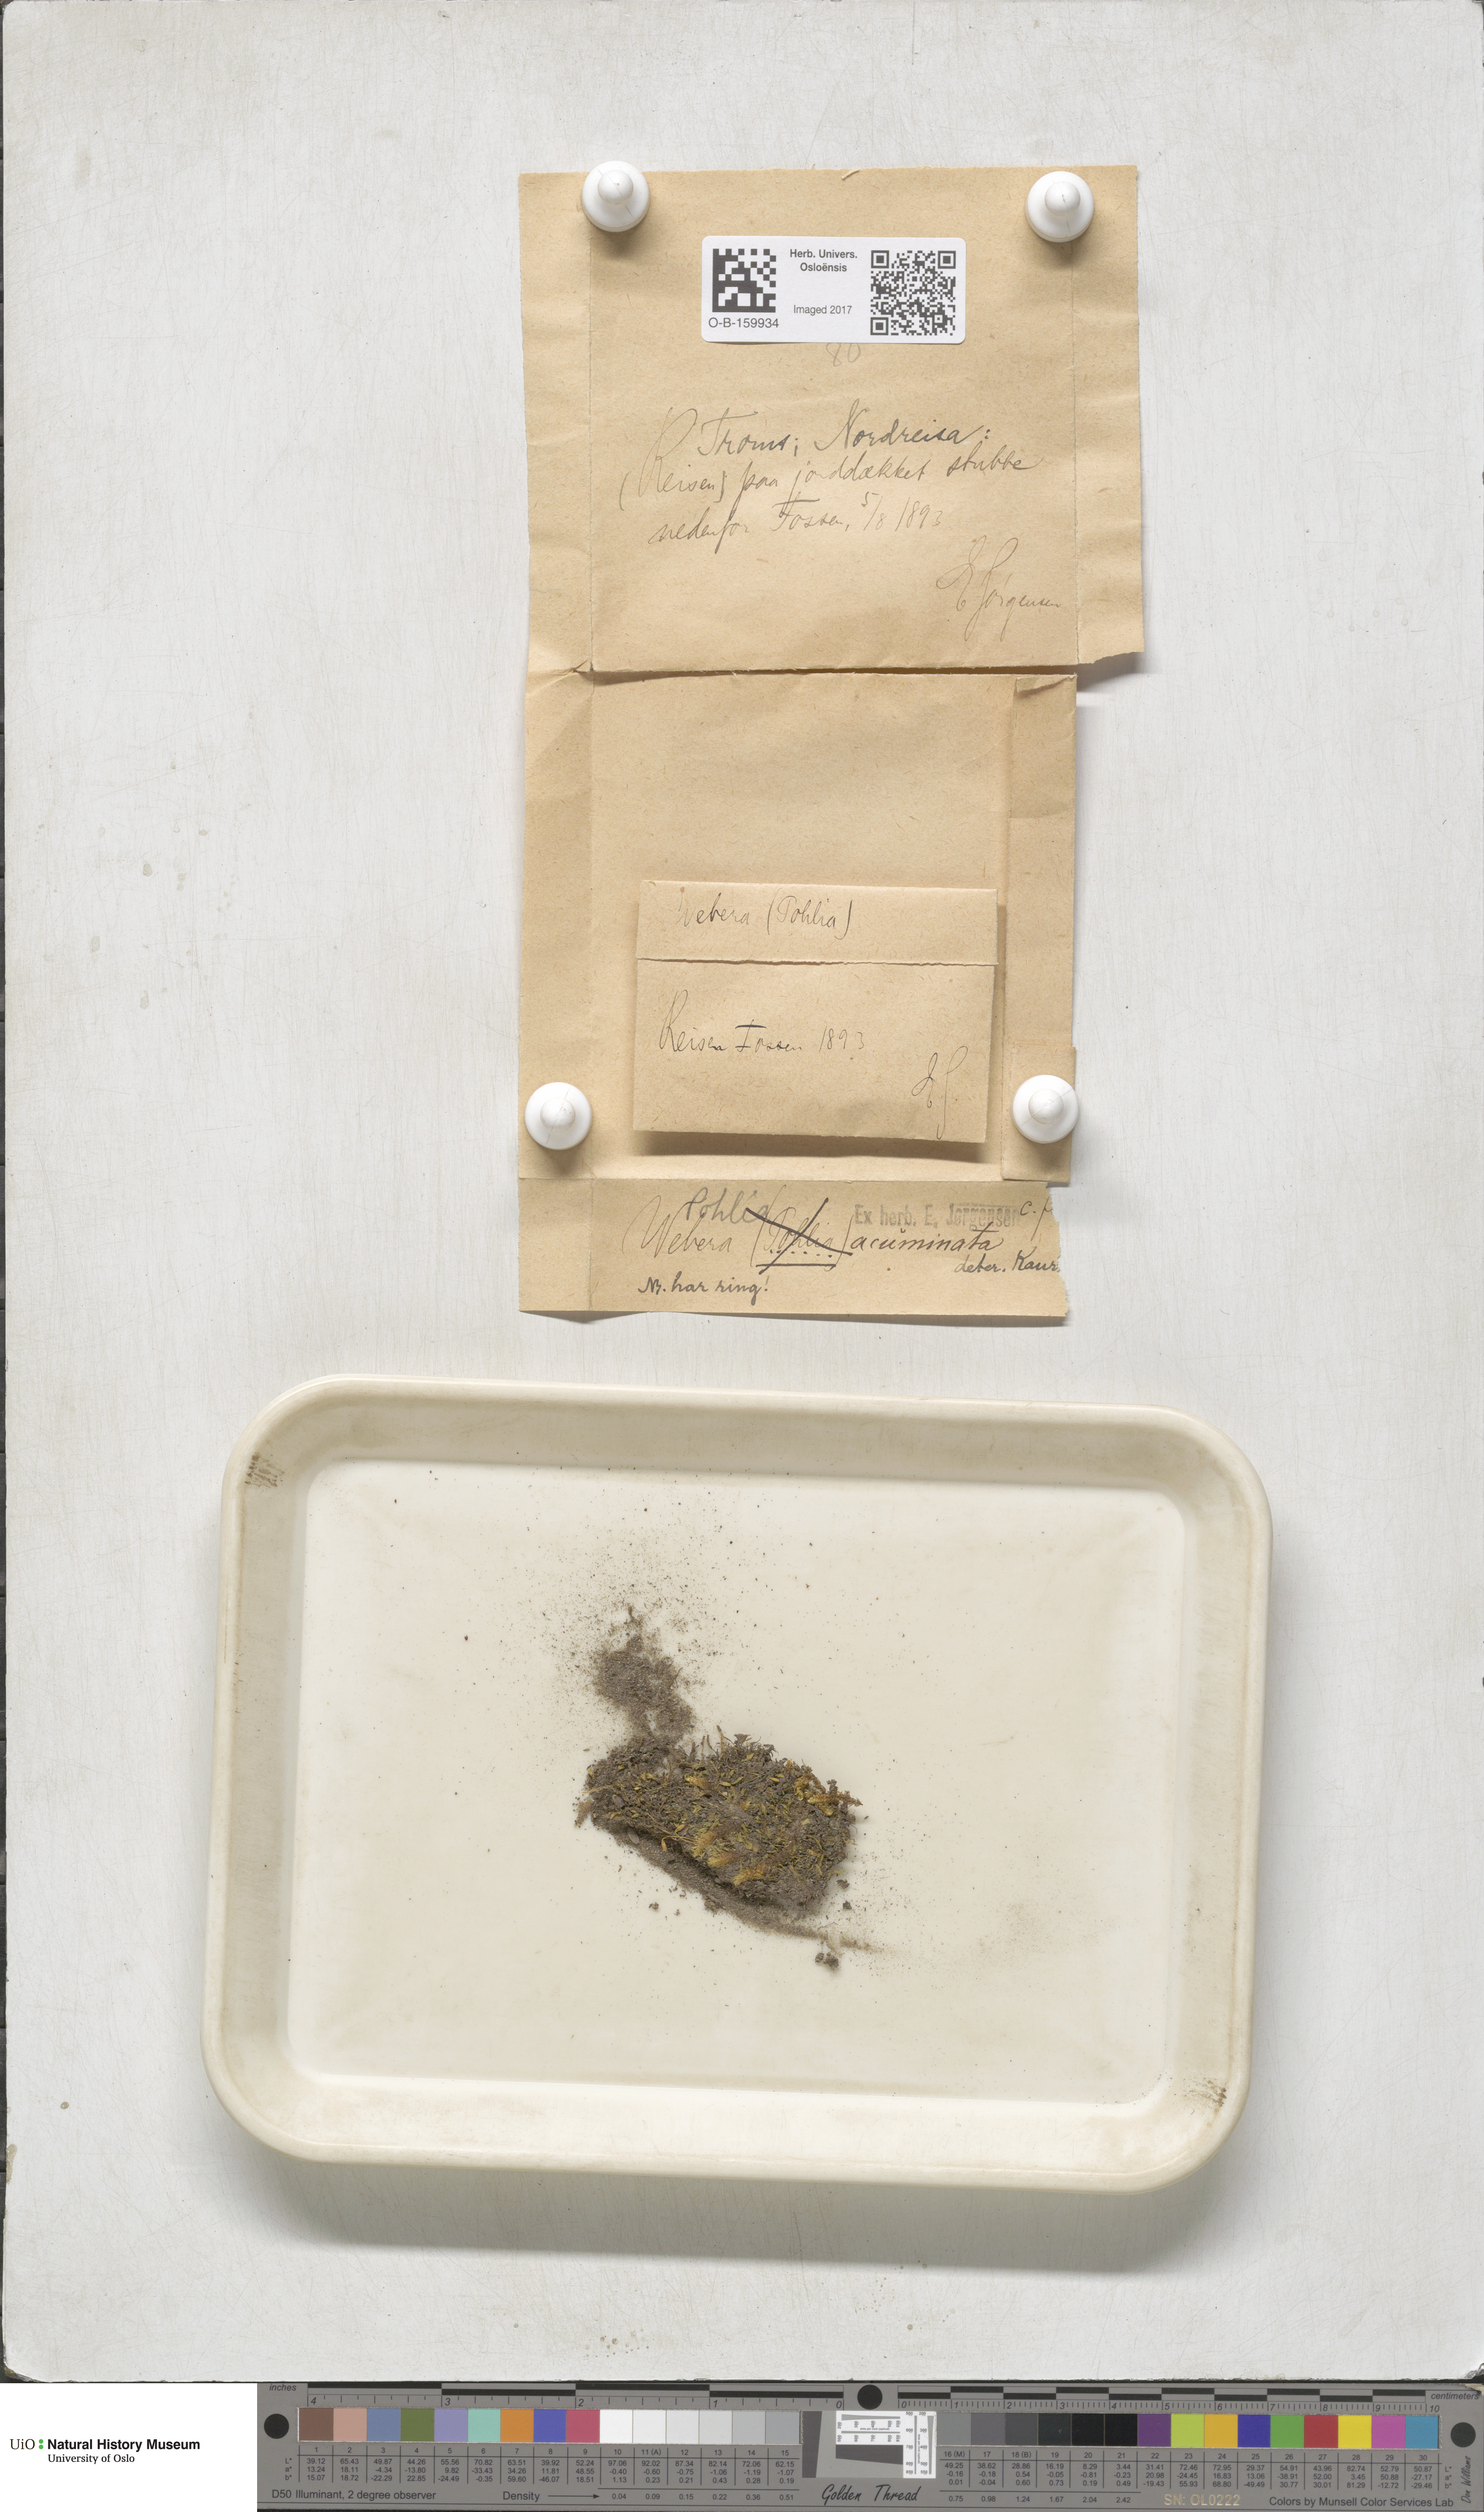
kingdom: Plantae
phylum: Bryophyta
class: Bryopsida
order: Bryales
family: Mniaceae
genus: Pohlia
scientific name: Pohlia elongata
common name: Long-fruited thread-moss
